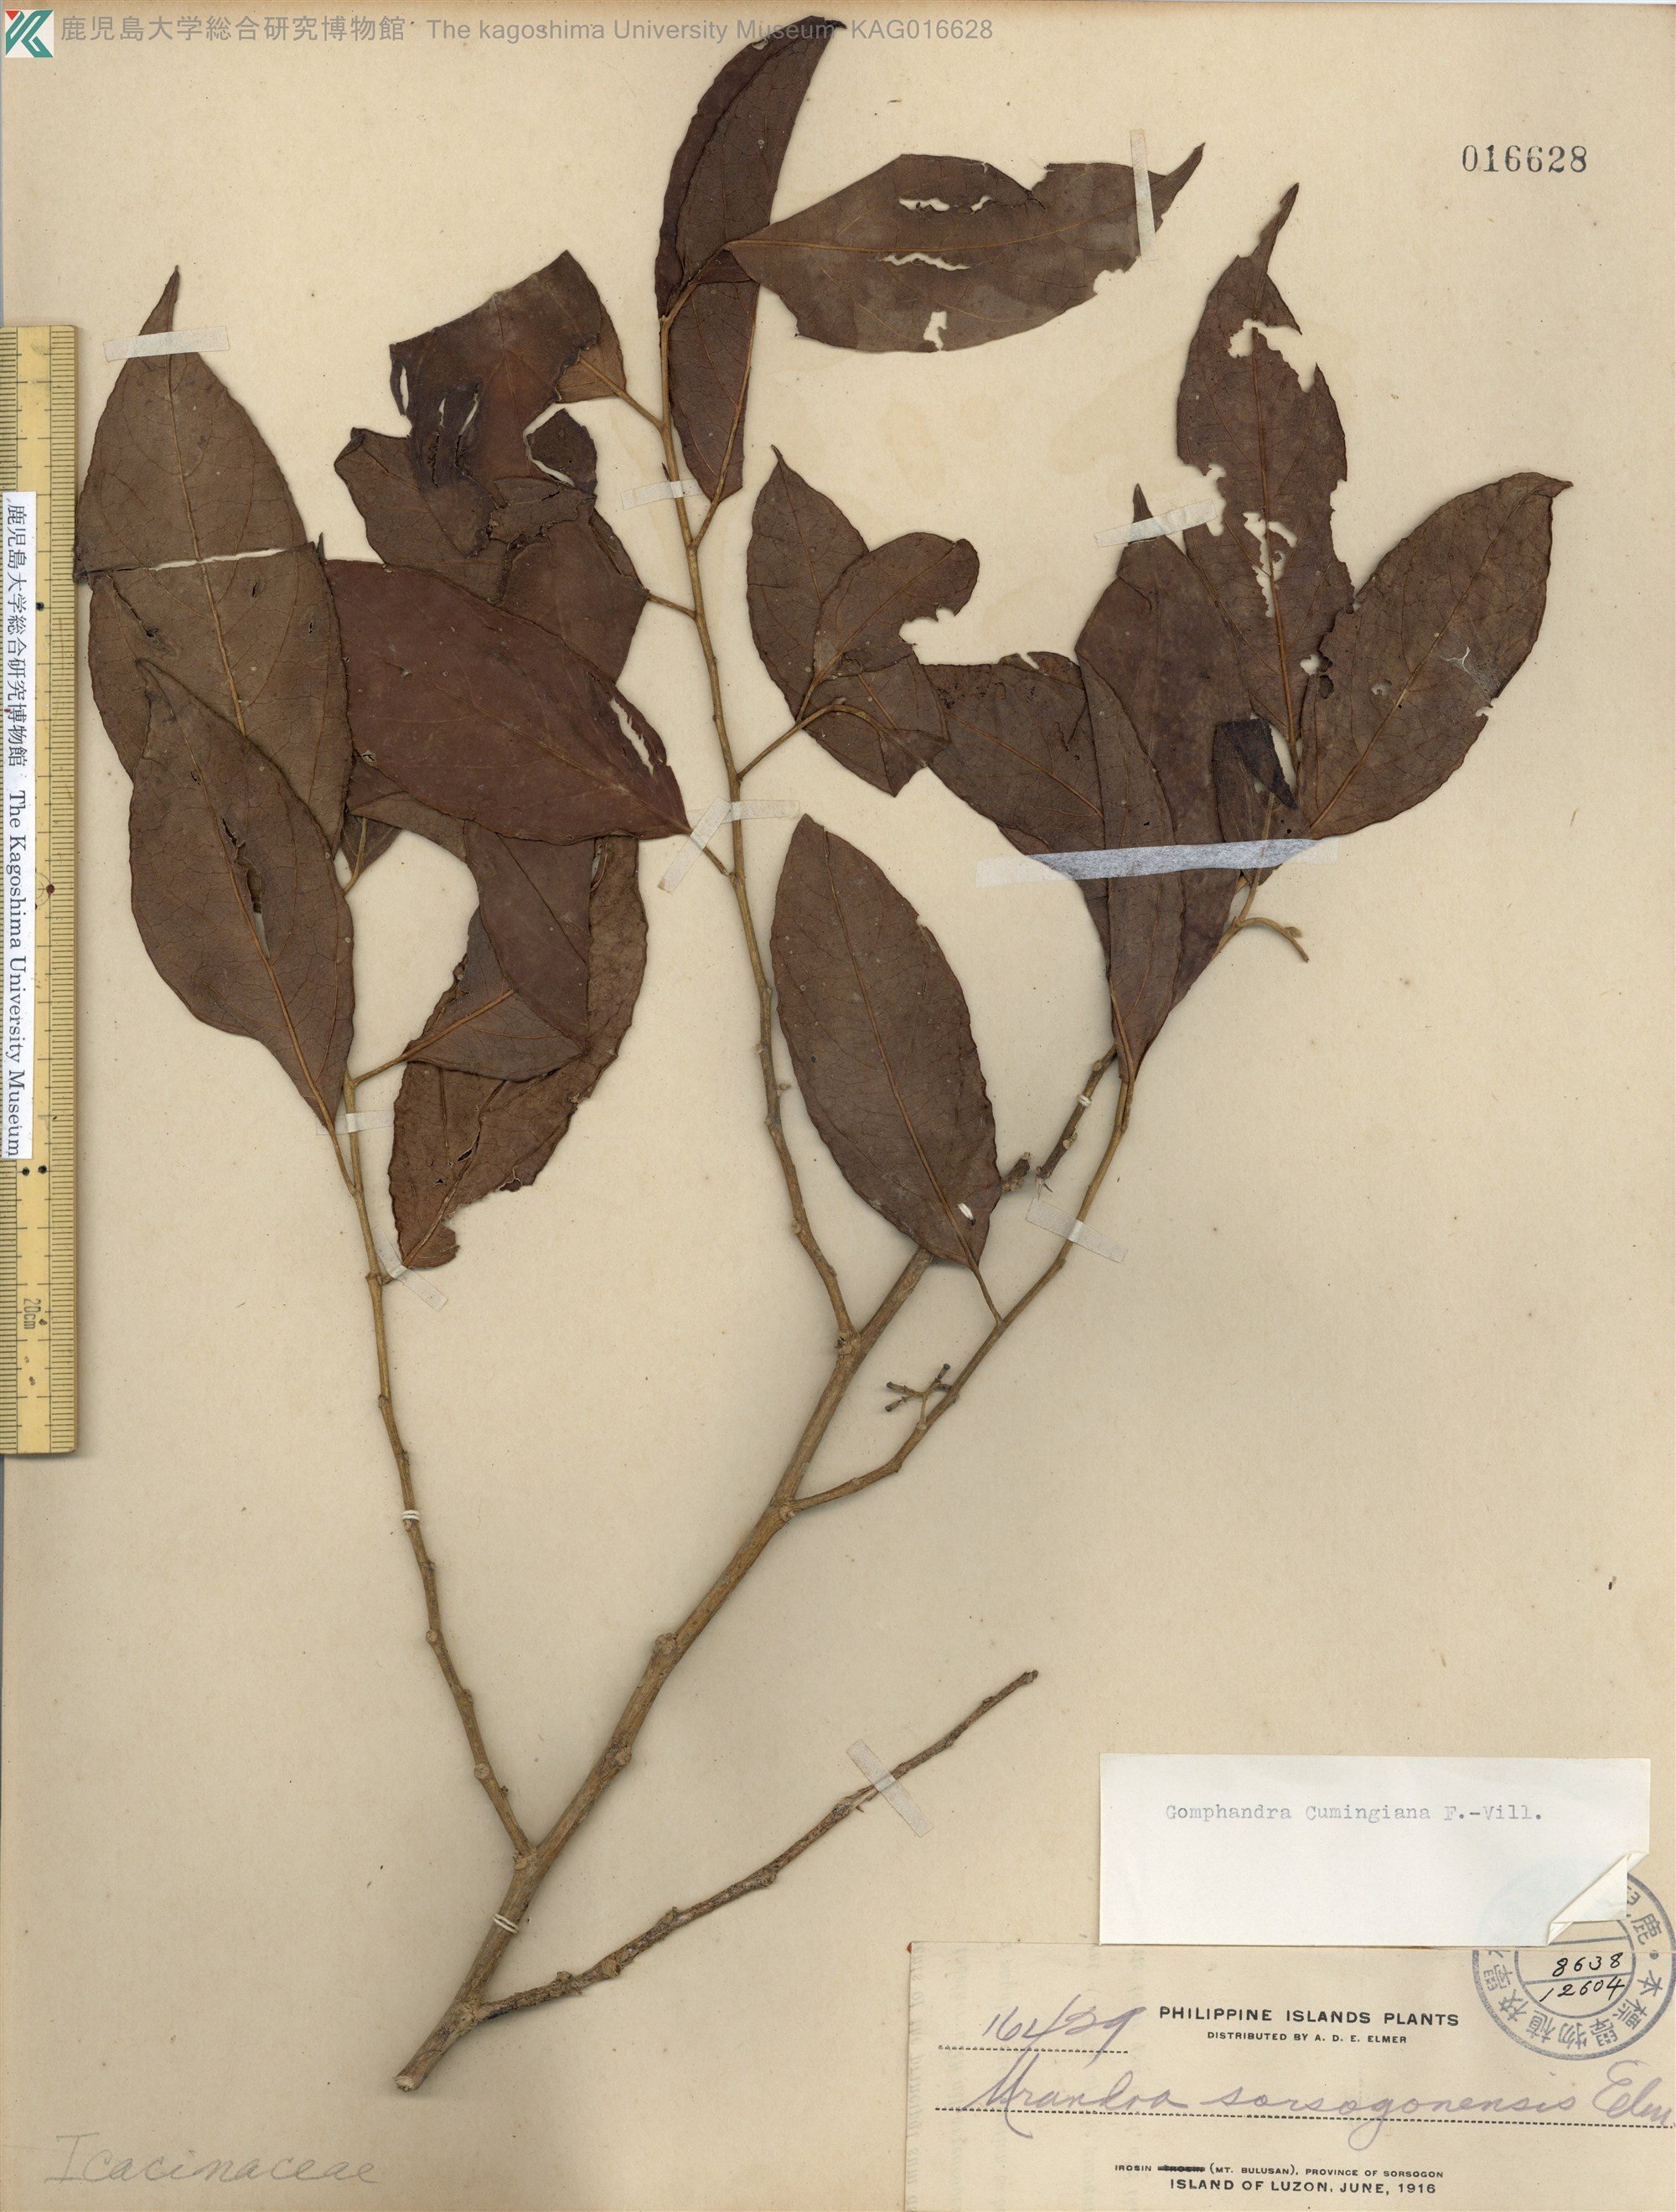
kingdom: Plantae
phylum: Tracheophyta
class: Magnoliopsida
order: Cardiopteridales
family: Stemonuraceae
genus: Gomphandra
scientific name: Gomphandra cumingiana
